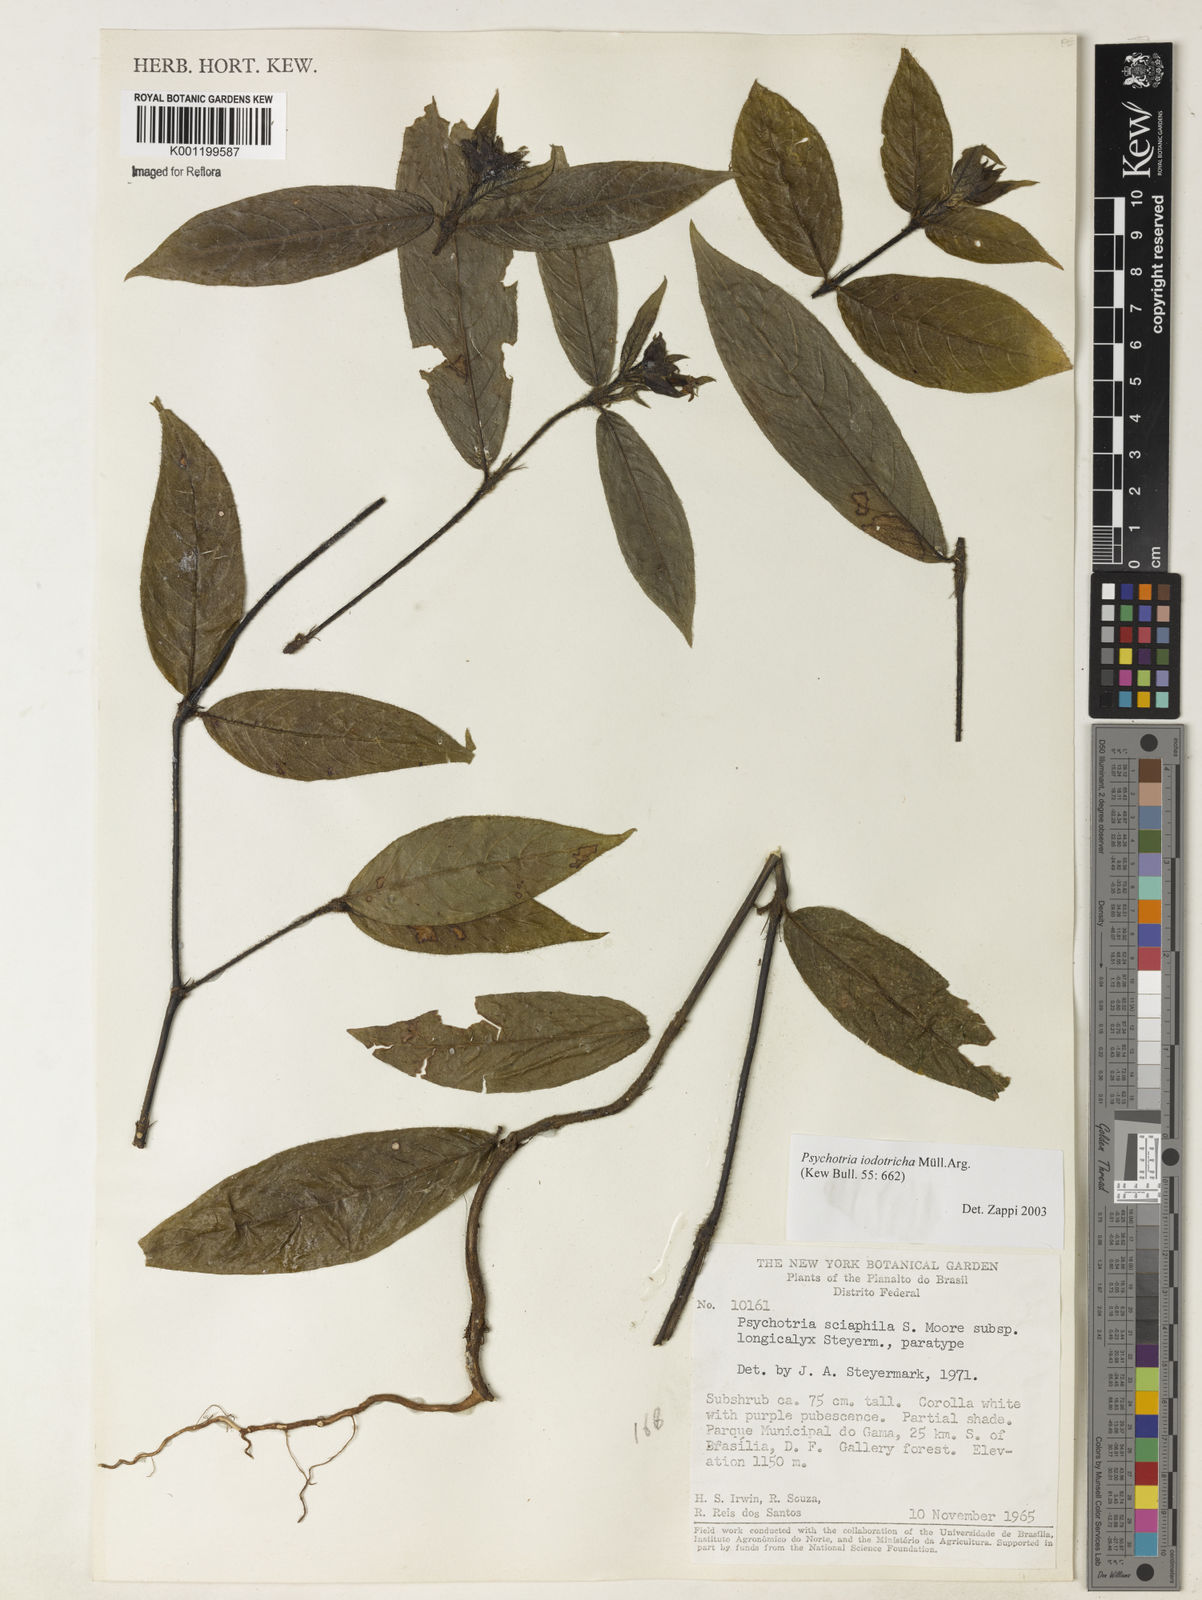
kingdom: Plantae
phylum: Tracheophyta
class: Magnoliopsida
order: Gentianales
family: Rubiaceae
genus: Psychotria
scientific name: Psychotria
